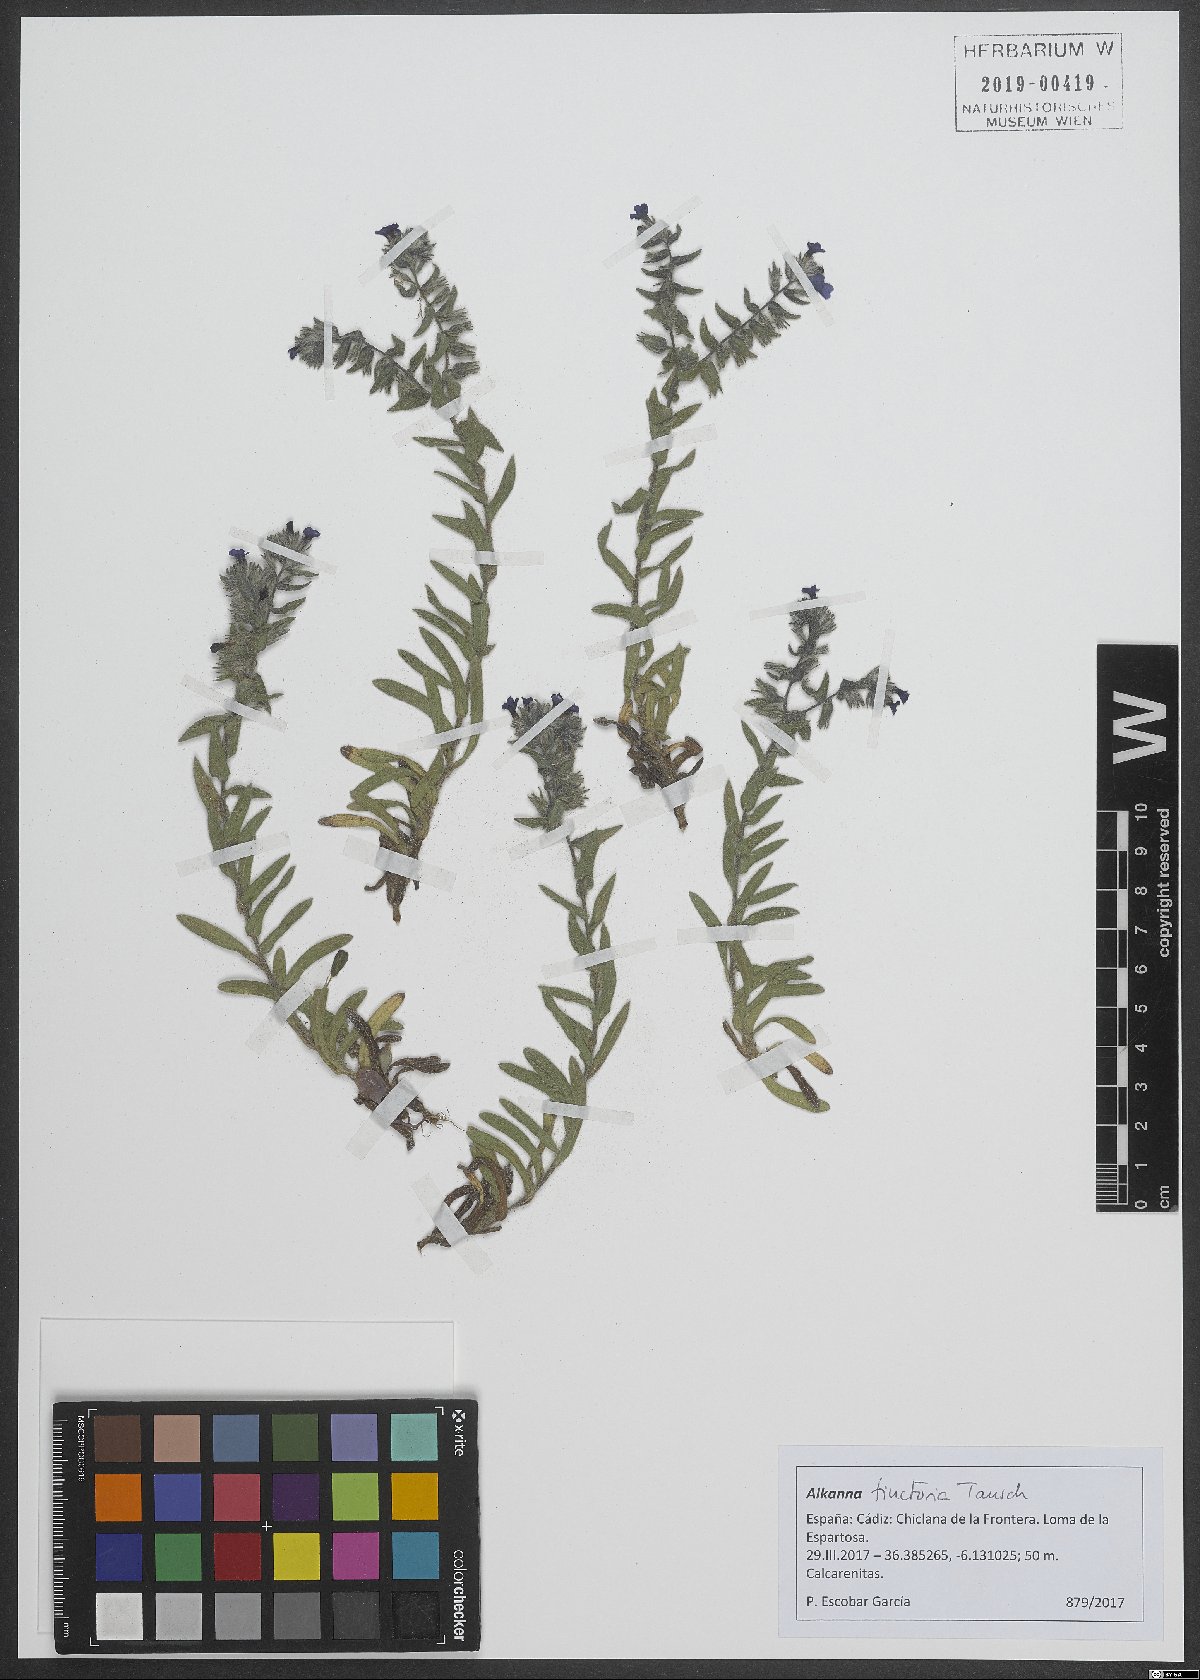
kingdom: Plantae
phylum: Tracheophyta
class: Magnoliopsida
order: Boraginales
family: Boraginaceae
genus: Alkanna
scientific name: Alkanna tinctoria
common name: Dyer's-alkanet
